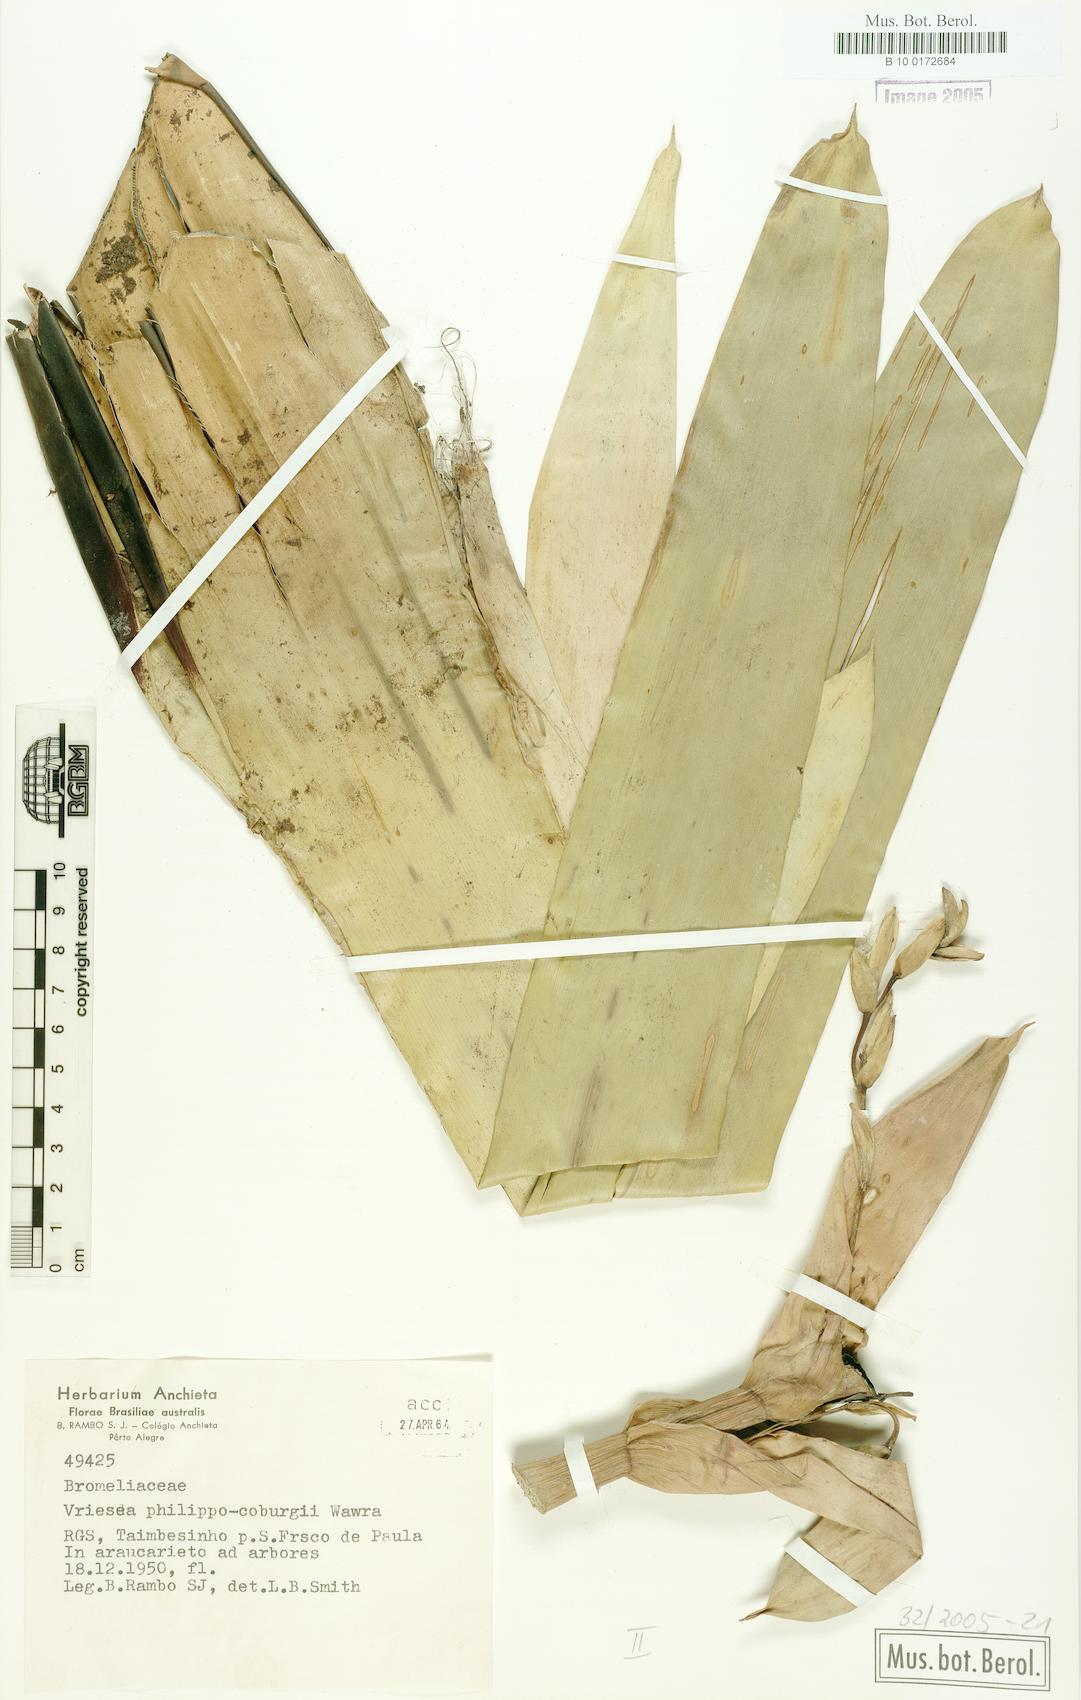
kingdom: Plantae
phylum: Tracheophyta
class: Liliopsida
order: Poales
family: Bromeliaceae
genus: Vriesea
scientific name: Vriesea philippocoburgi
